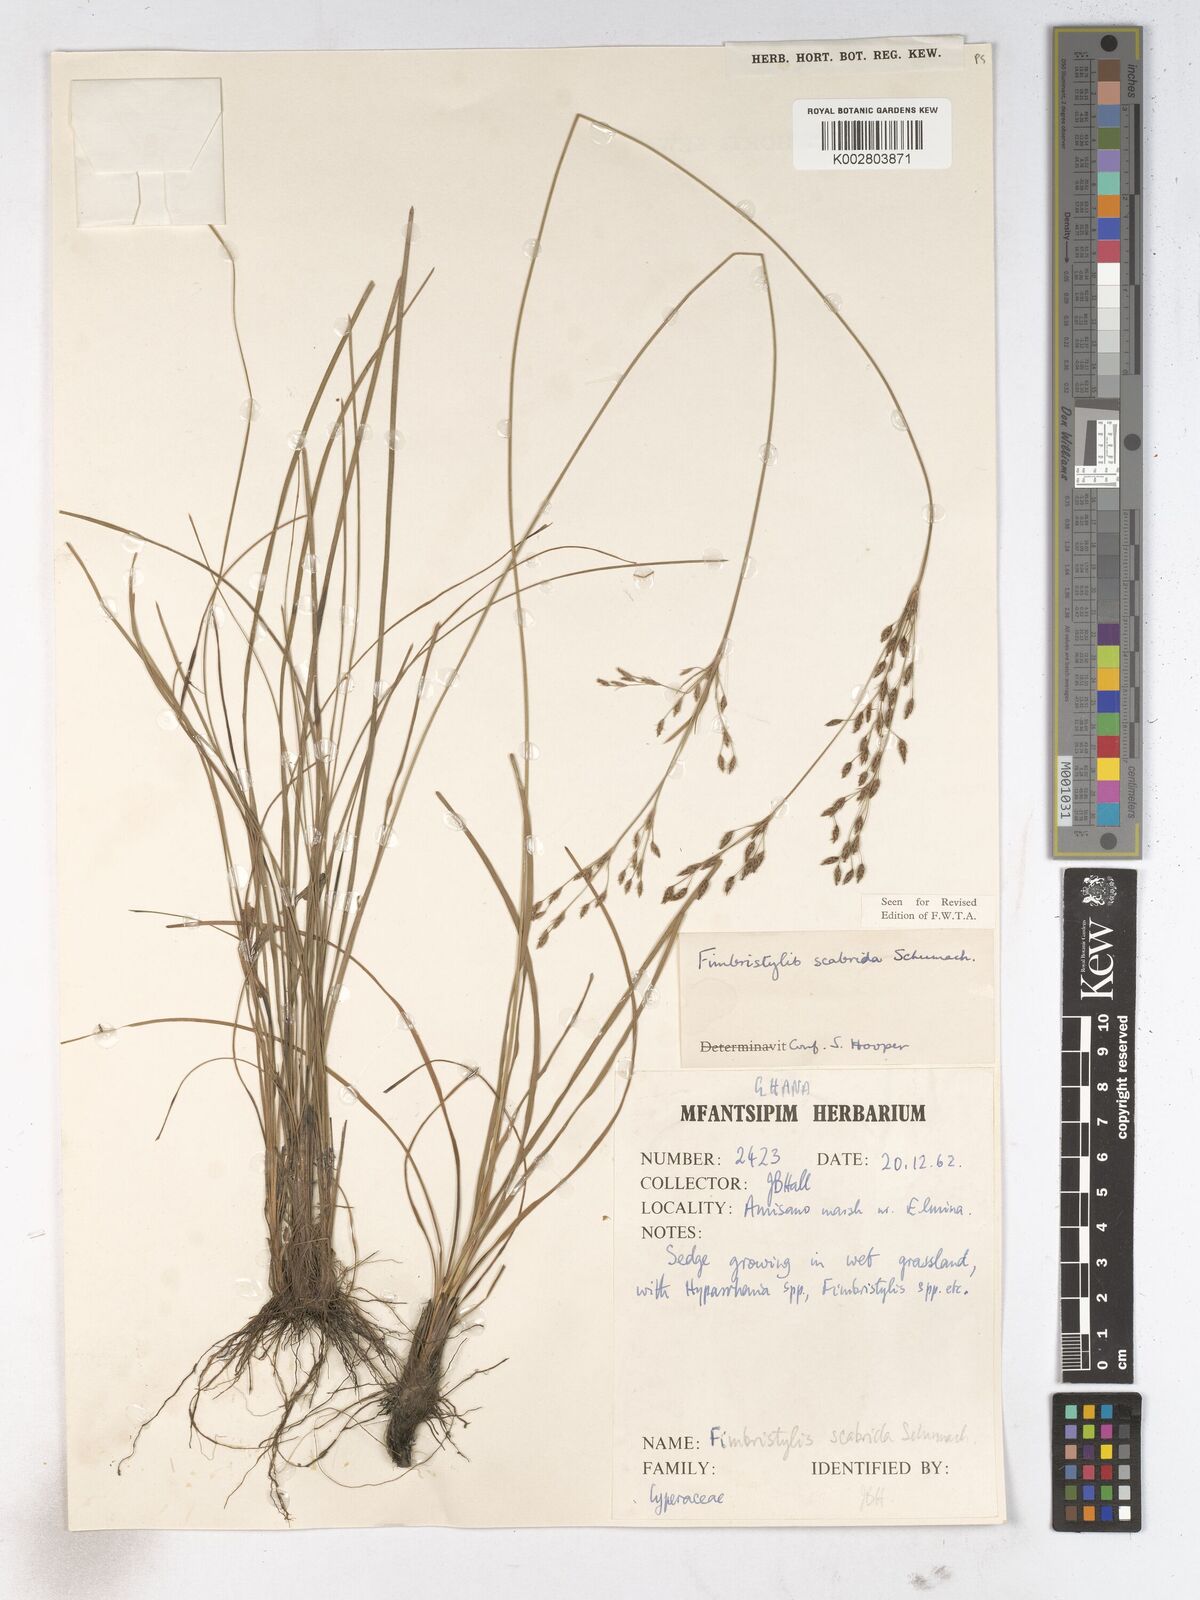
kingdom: Plantae
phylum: Tracheophyta
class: Liliopsida
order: Poales
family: Cyperaceae
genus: Fimbristylis
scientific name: Fimbristylis scabrida
